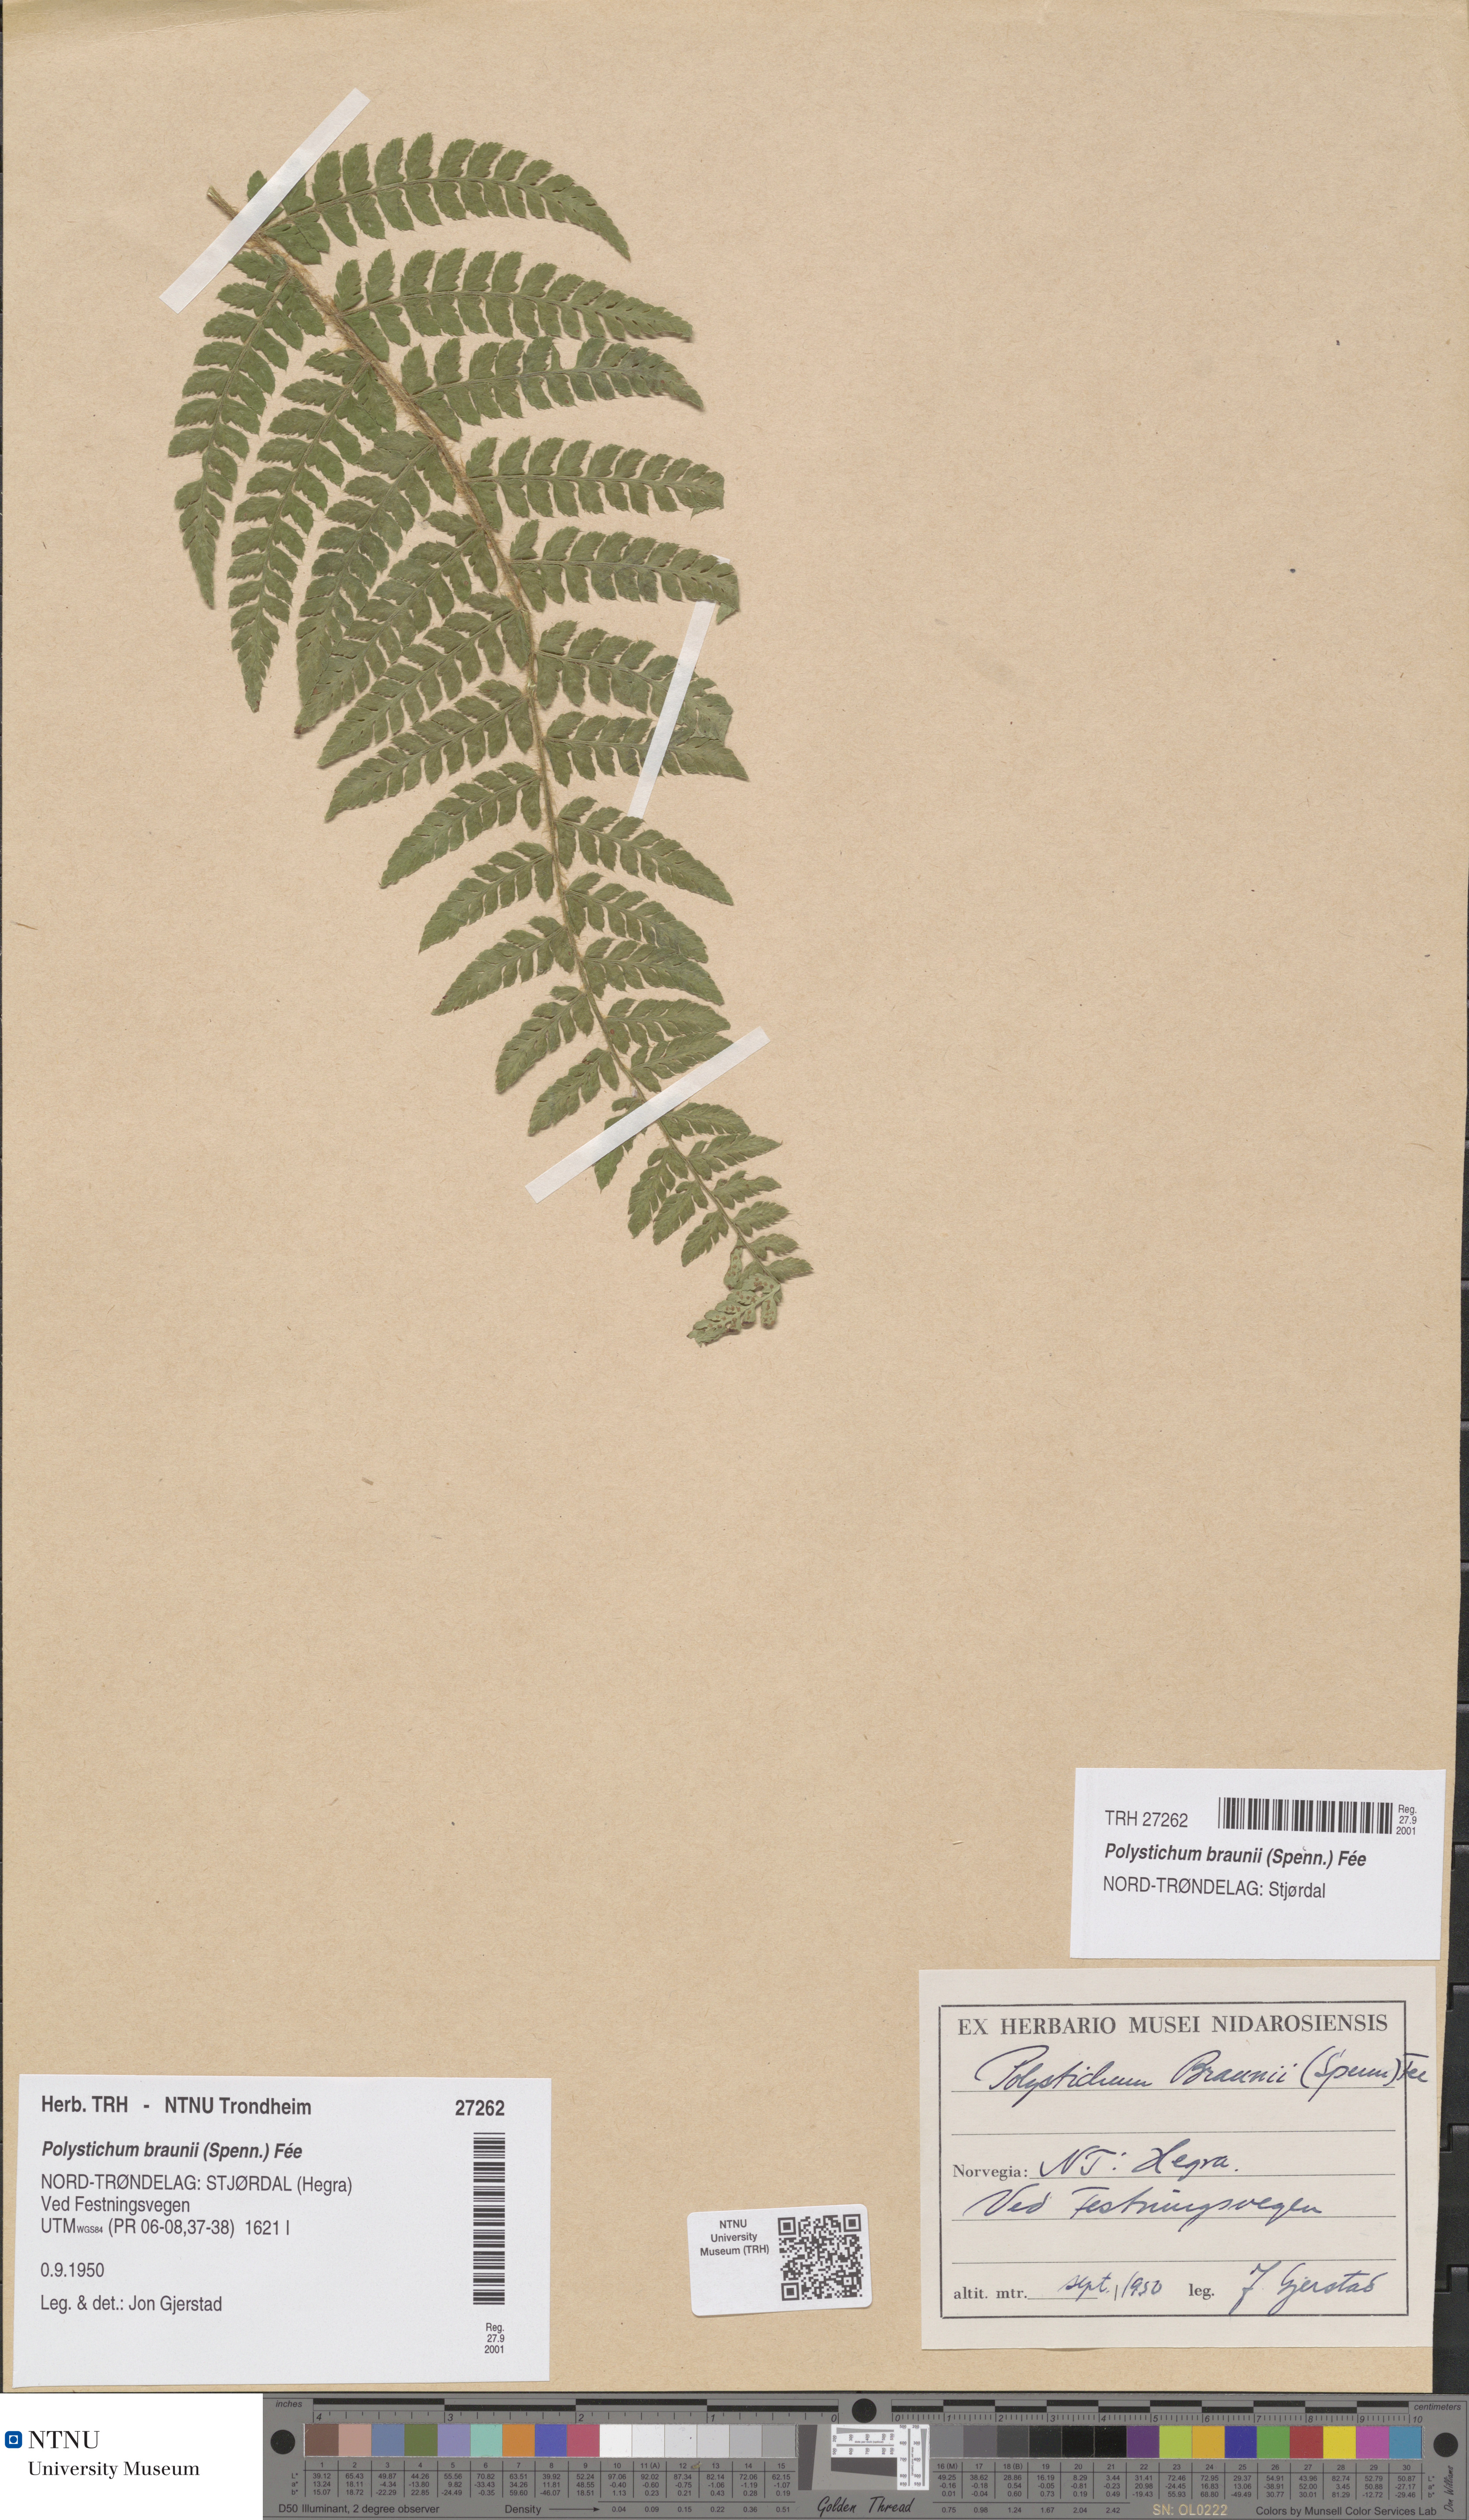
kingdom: Plantae
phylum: Tracheophyta
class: Polypodiopsida
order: Polypodiales
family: Dryopteridaceae
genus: Polystichum
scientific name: Polystichum braunii
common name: Braun's holly fern
